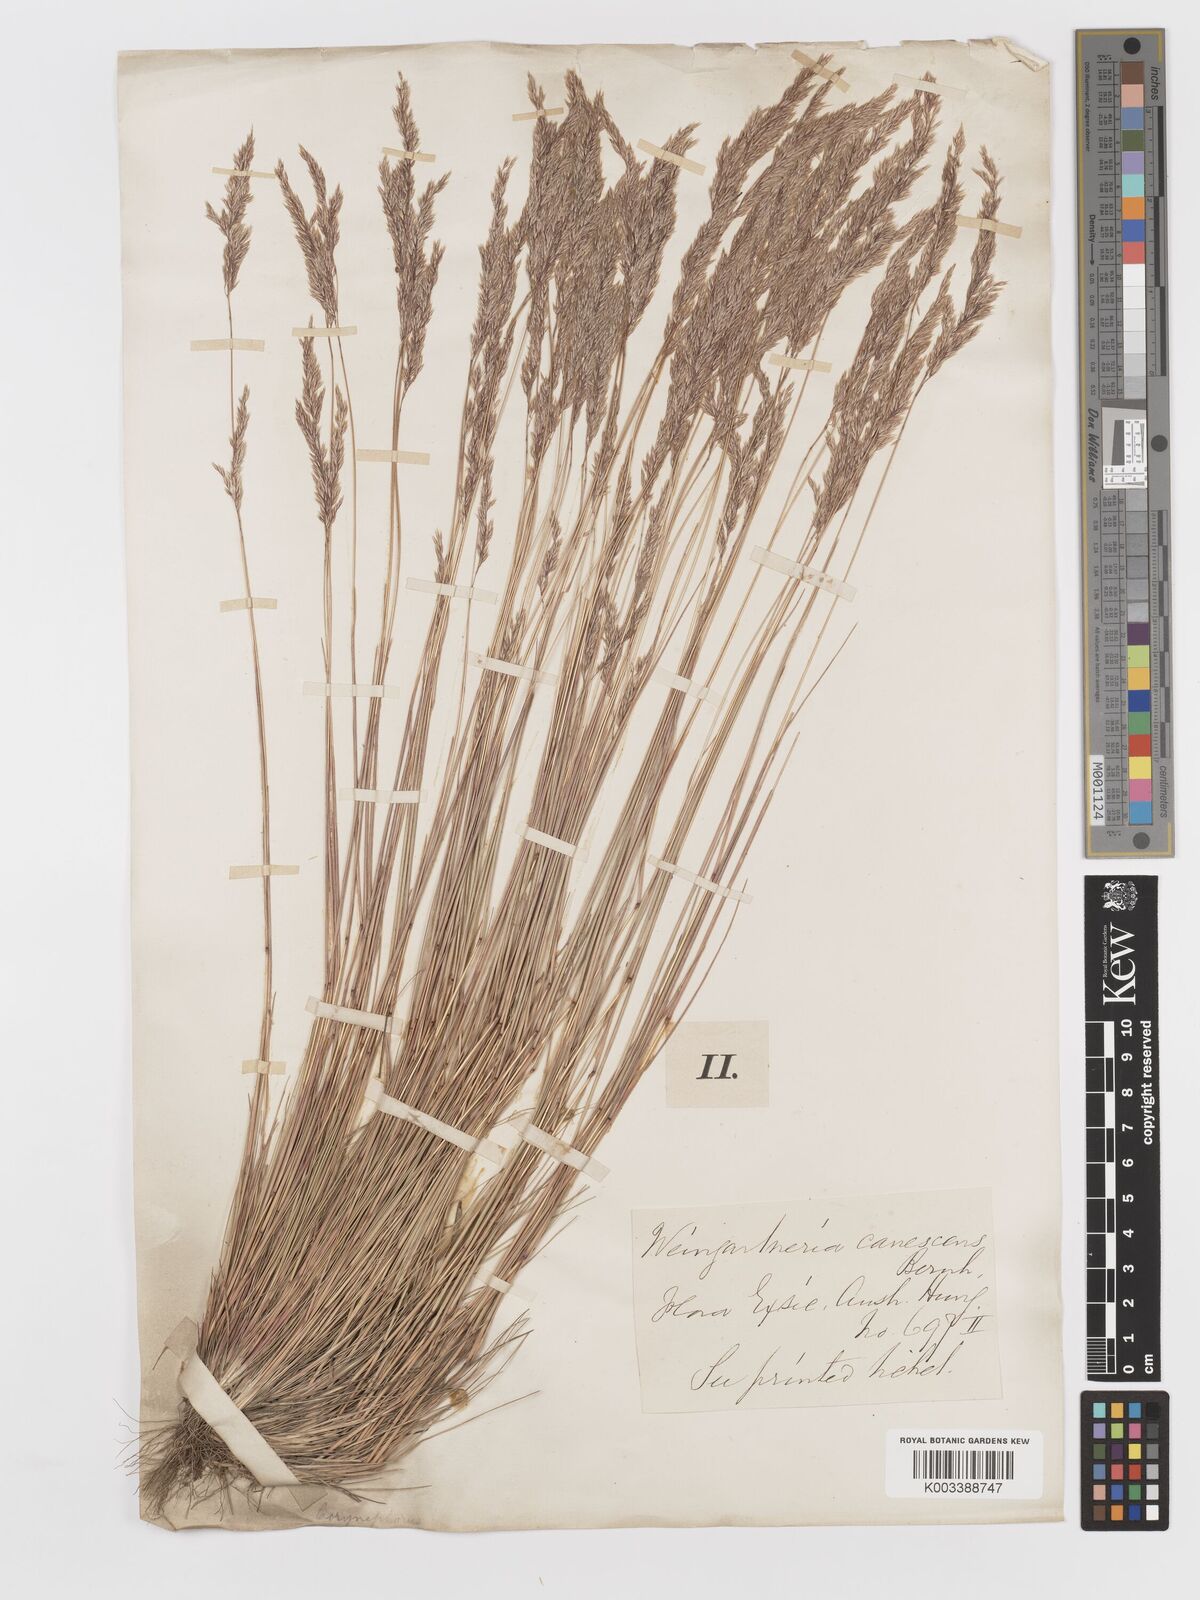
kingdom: Plantae
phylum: Tracheophyta
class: Liliopsida
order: Poales
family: Poaceae
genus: Corynephorus
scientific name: Corynephorus canescens
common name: Grey hair-grass
